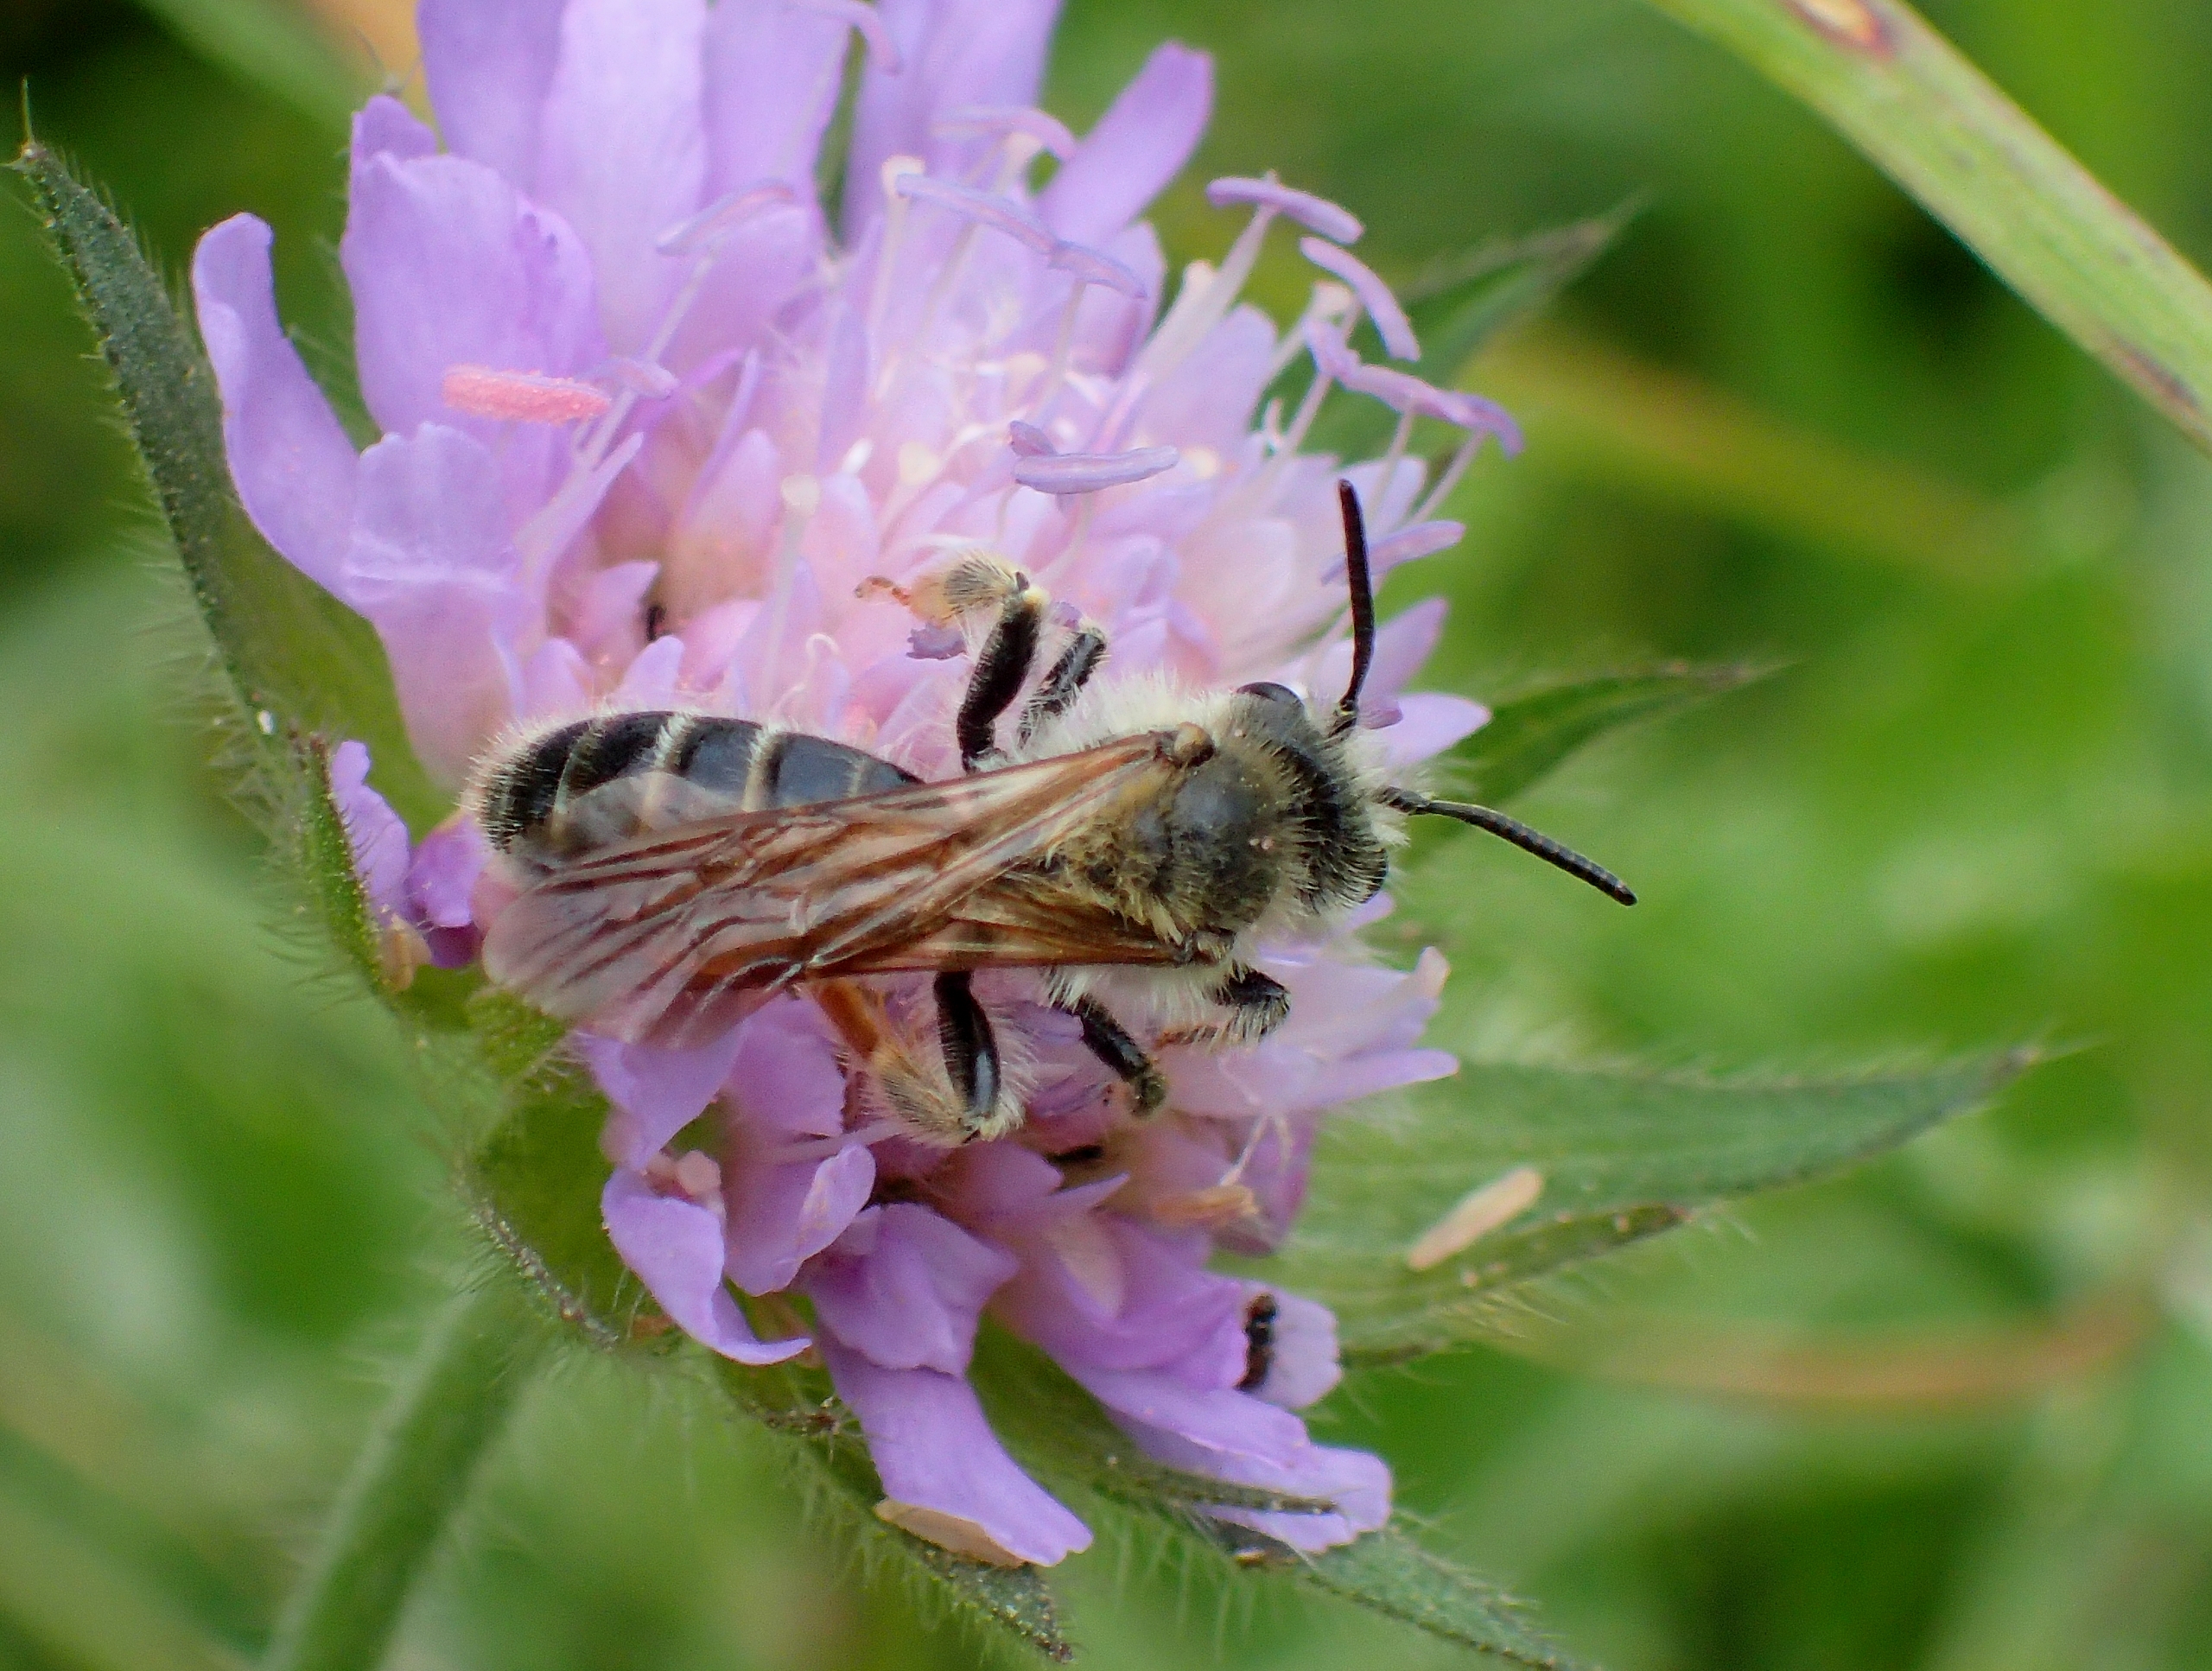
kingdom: Animalia
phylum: Arthropoda
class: Insecta
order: Hymenoptera
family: Andrenidae
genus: Andrena
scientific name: Andrena hattorfiana
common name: Blåhatjordbi
